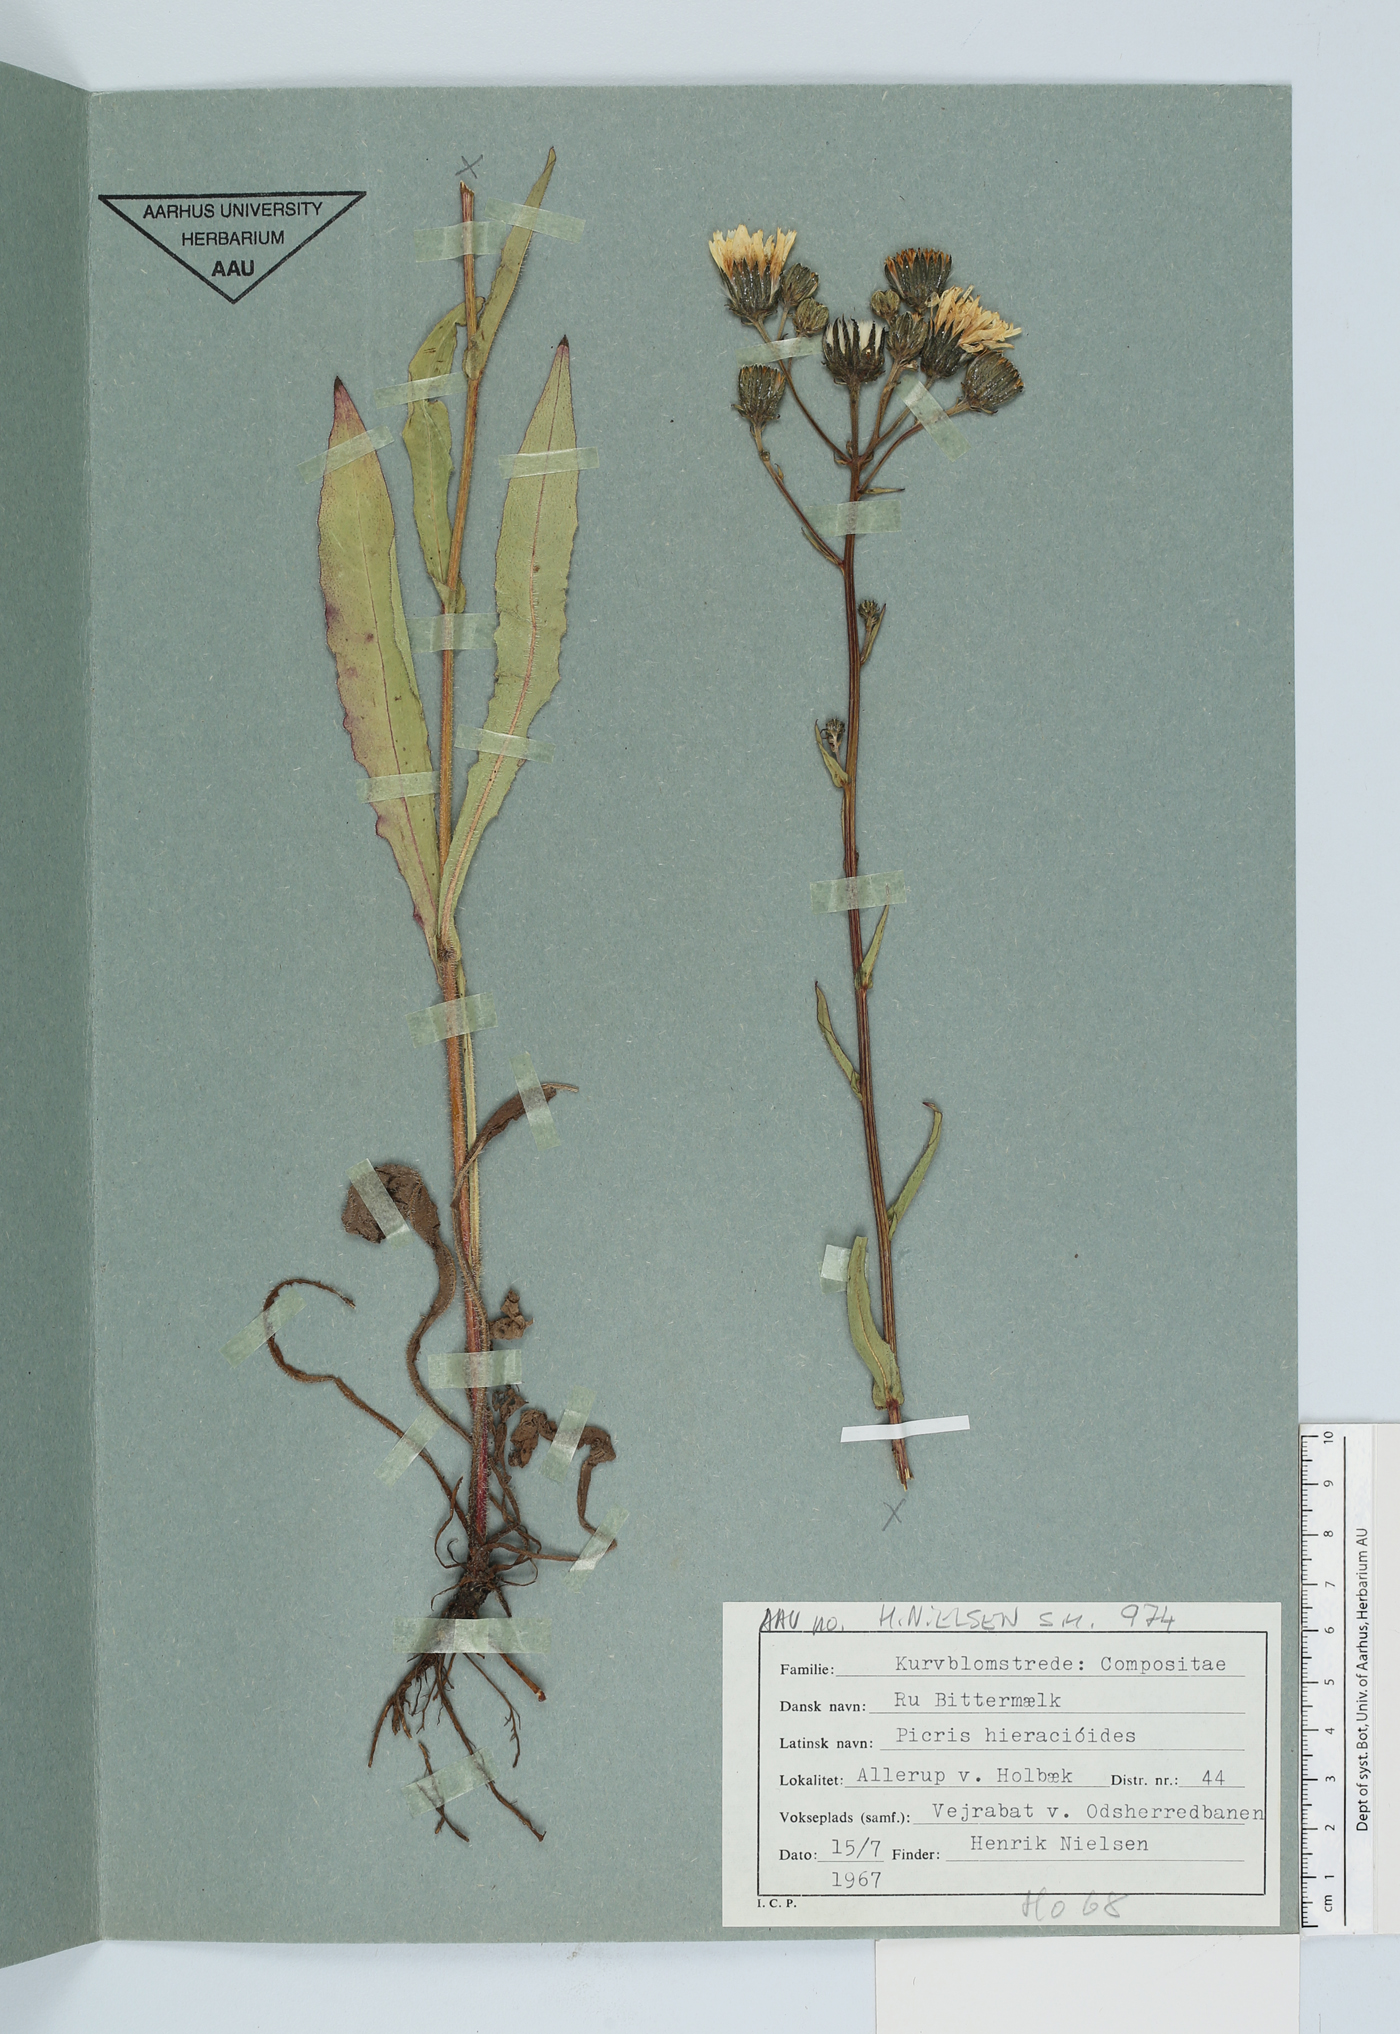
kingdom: Plantae
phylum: Tracheophyta
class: Magnoliopsida
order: Asterales
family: Asteraceae
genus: Picris
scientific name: Picris hieracioides
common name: Hawkweed oxtongue
